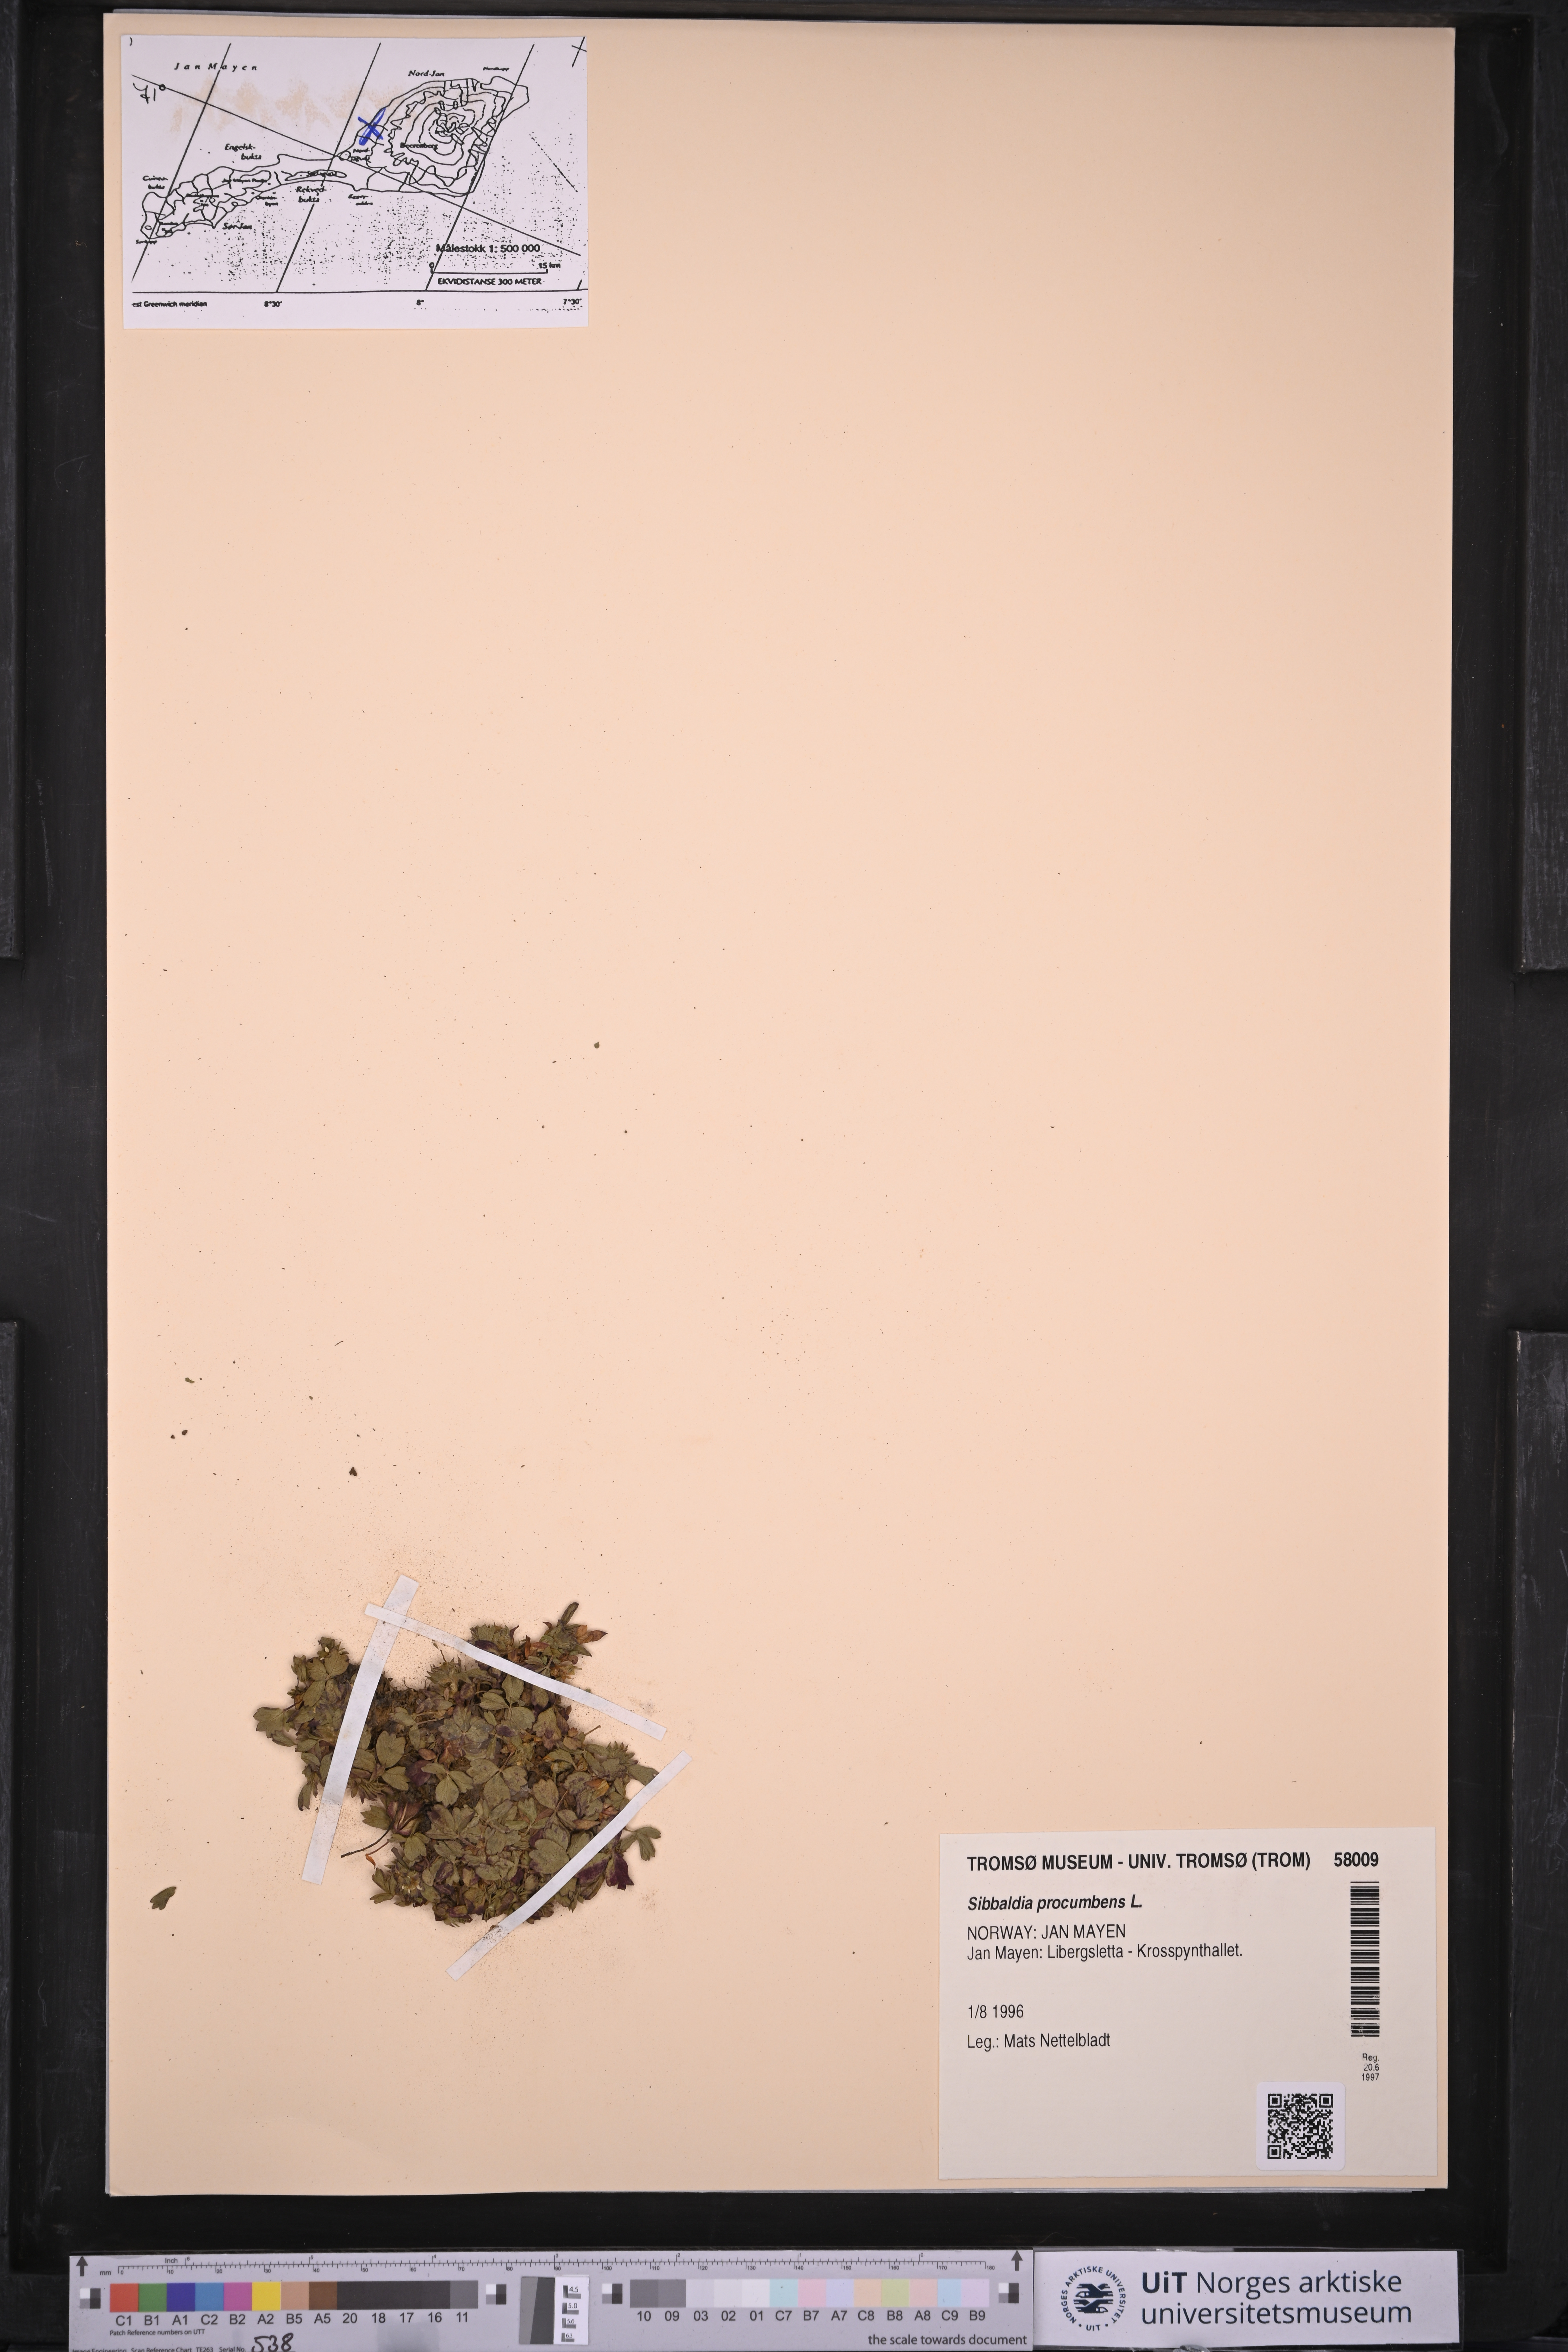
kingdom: Plantae
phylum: Tracheophyta
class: Magnoliopsida
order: Rosales
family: Rosaceae
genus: Sibbaldia
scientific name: Sibbaldia procumbens
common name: Creeping sibbaldia
